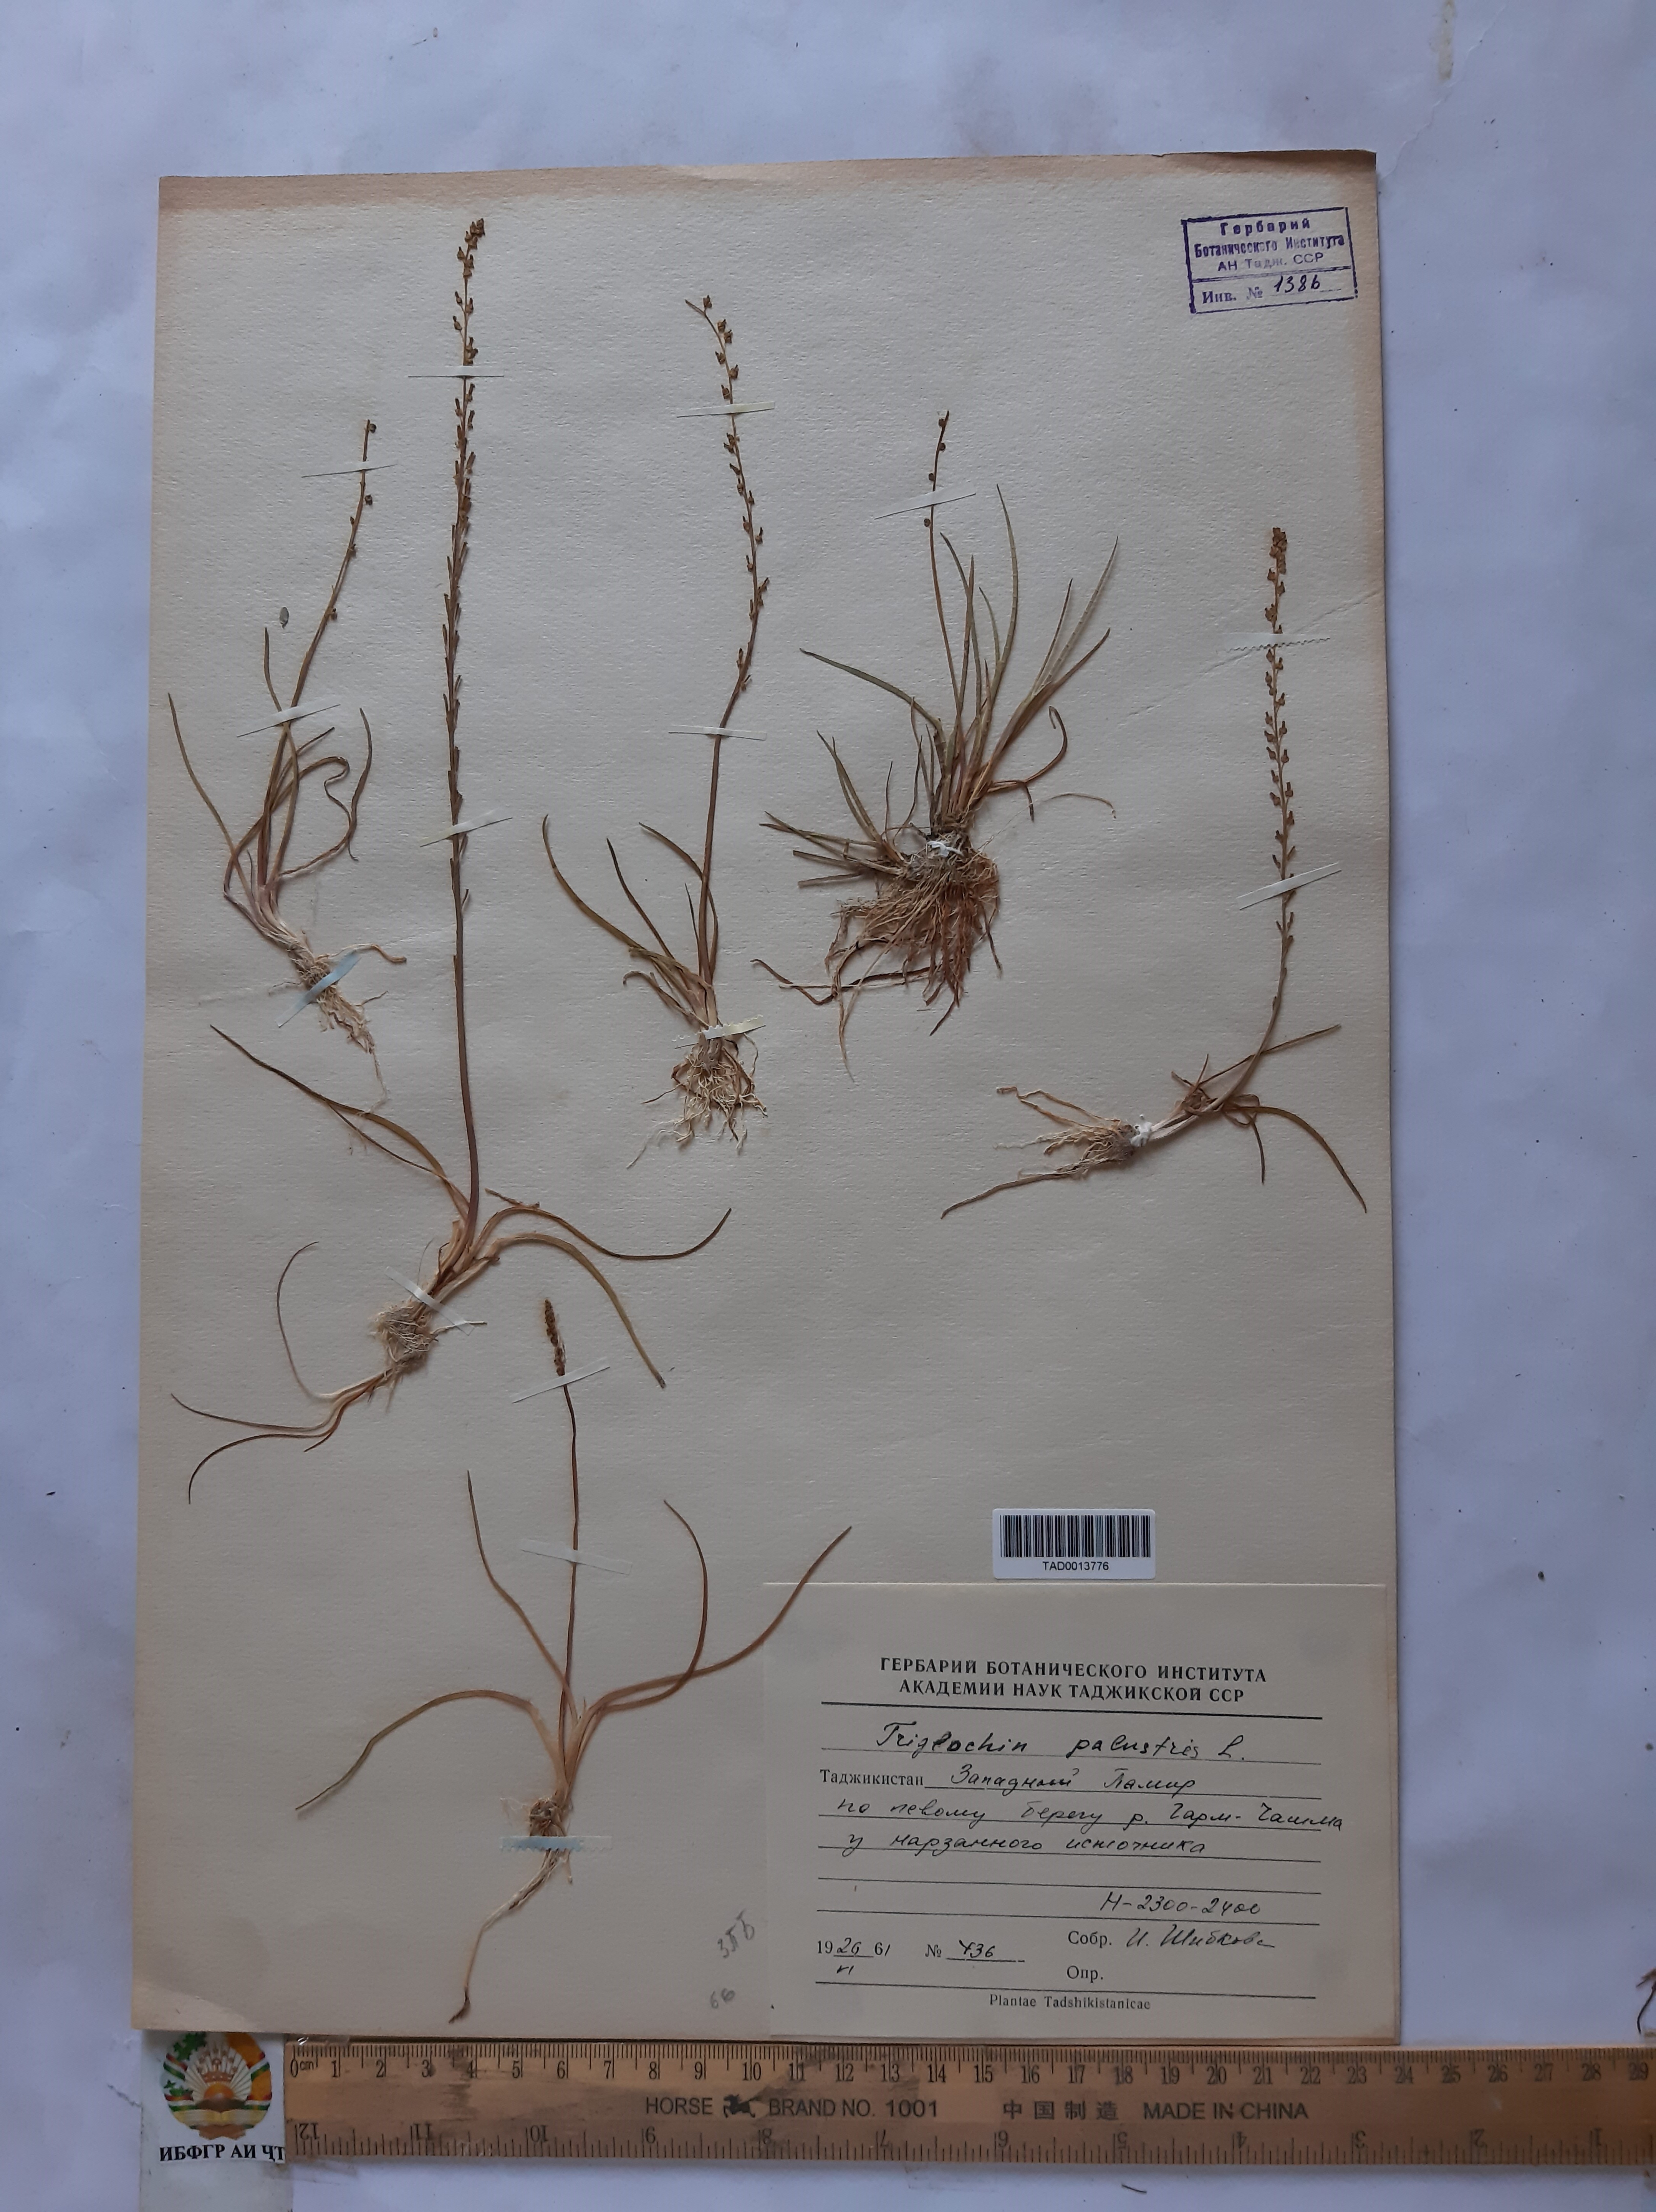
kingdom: Plantae
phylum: Tracheophyta
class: Liliopsida
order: Alismatales
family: Juncaginaceae
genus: Triglochin
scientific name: Triglochin palustris
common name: Marsh arrowgrass
